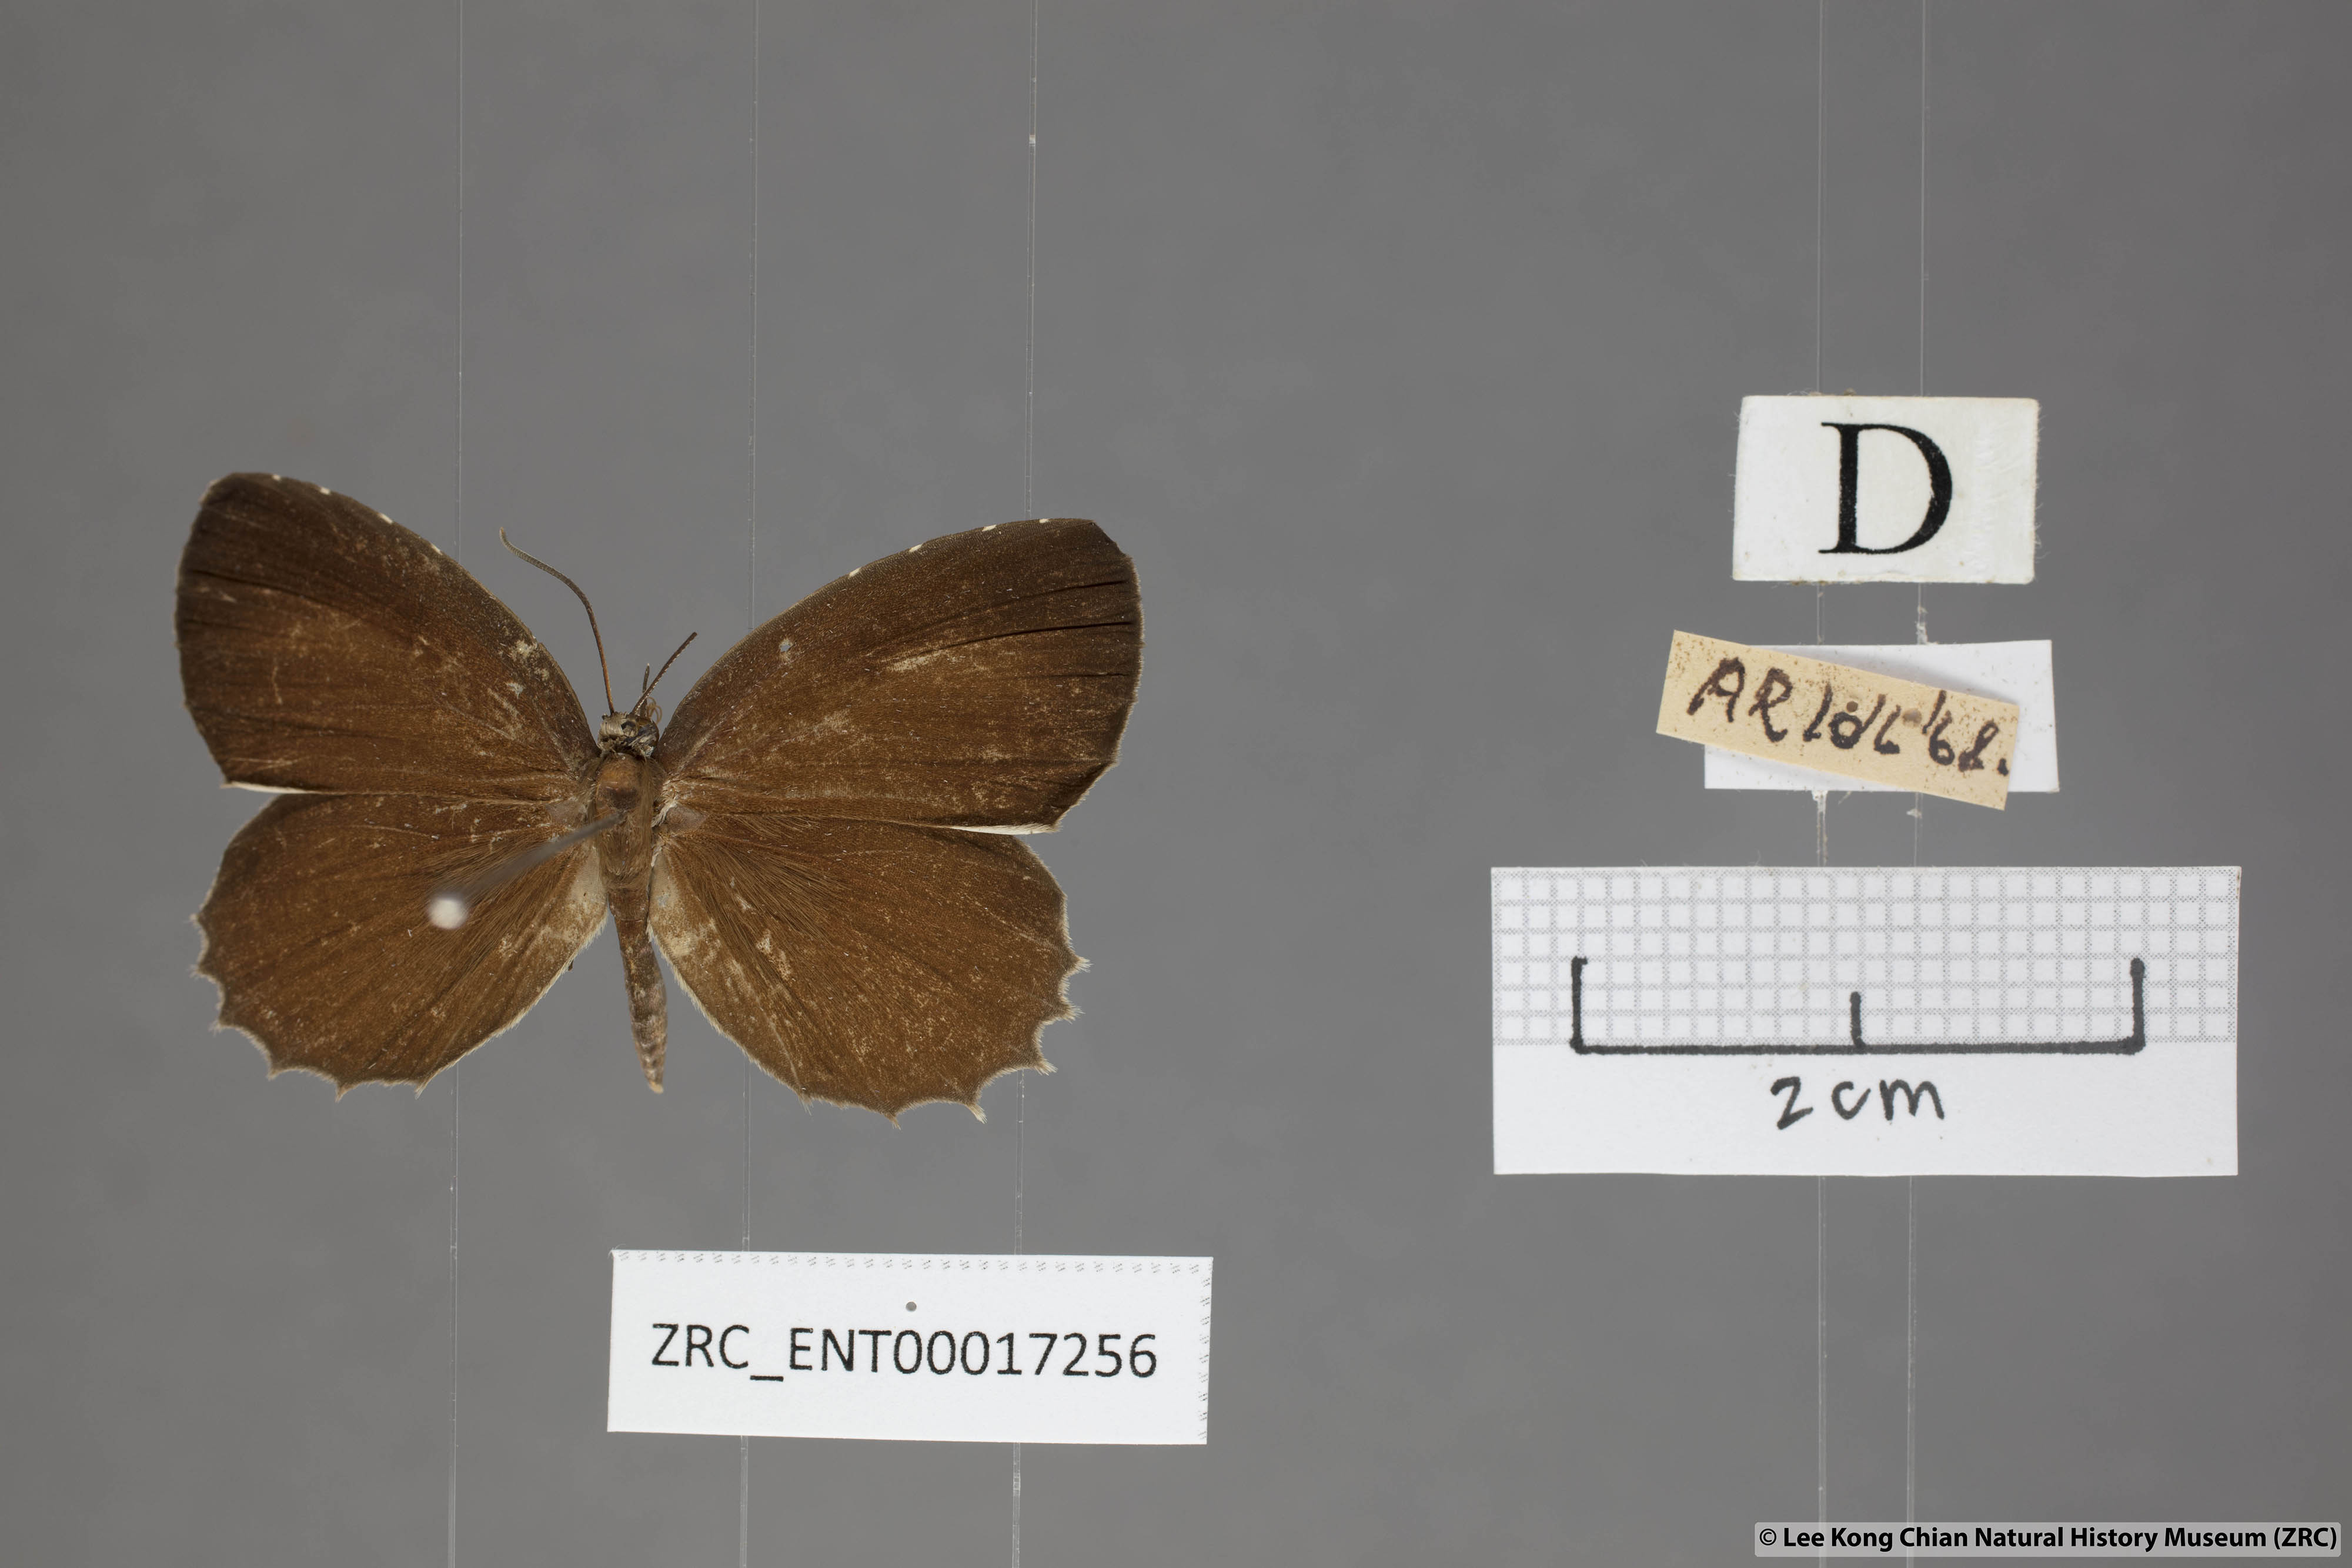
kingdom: Animalia
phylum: Arthropoda
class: Insecta
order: Lepidoptera
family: Lycaenidae
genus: Allotinus
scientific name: Allotinus horsfieldi
